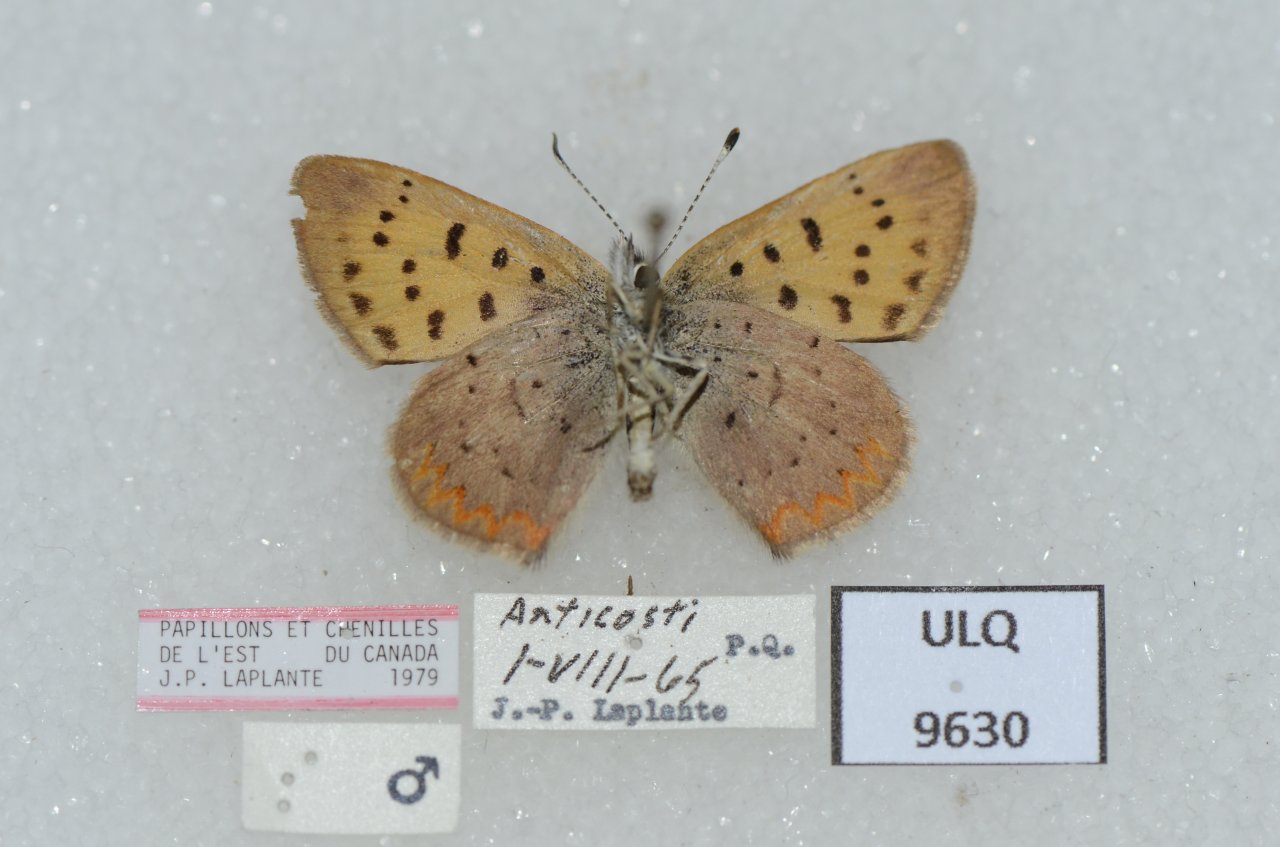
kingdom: Animalia
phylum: Arthropoda
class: Insecta
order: Lepidoptera
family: Lycaenidae
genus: Epidemia
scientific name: Epidemia dorcas
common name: Dorcas Copper
